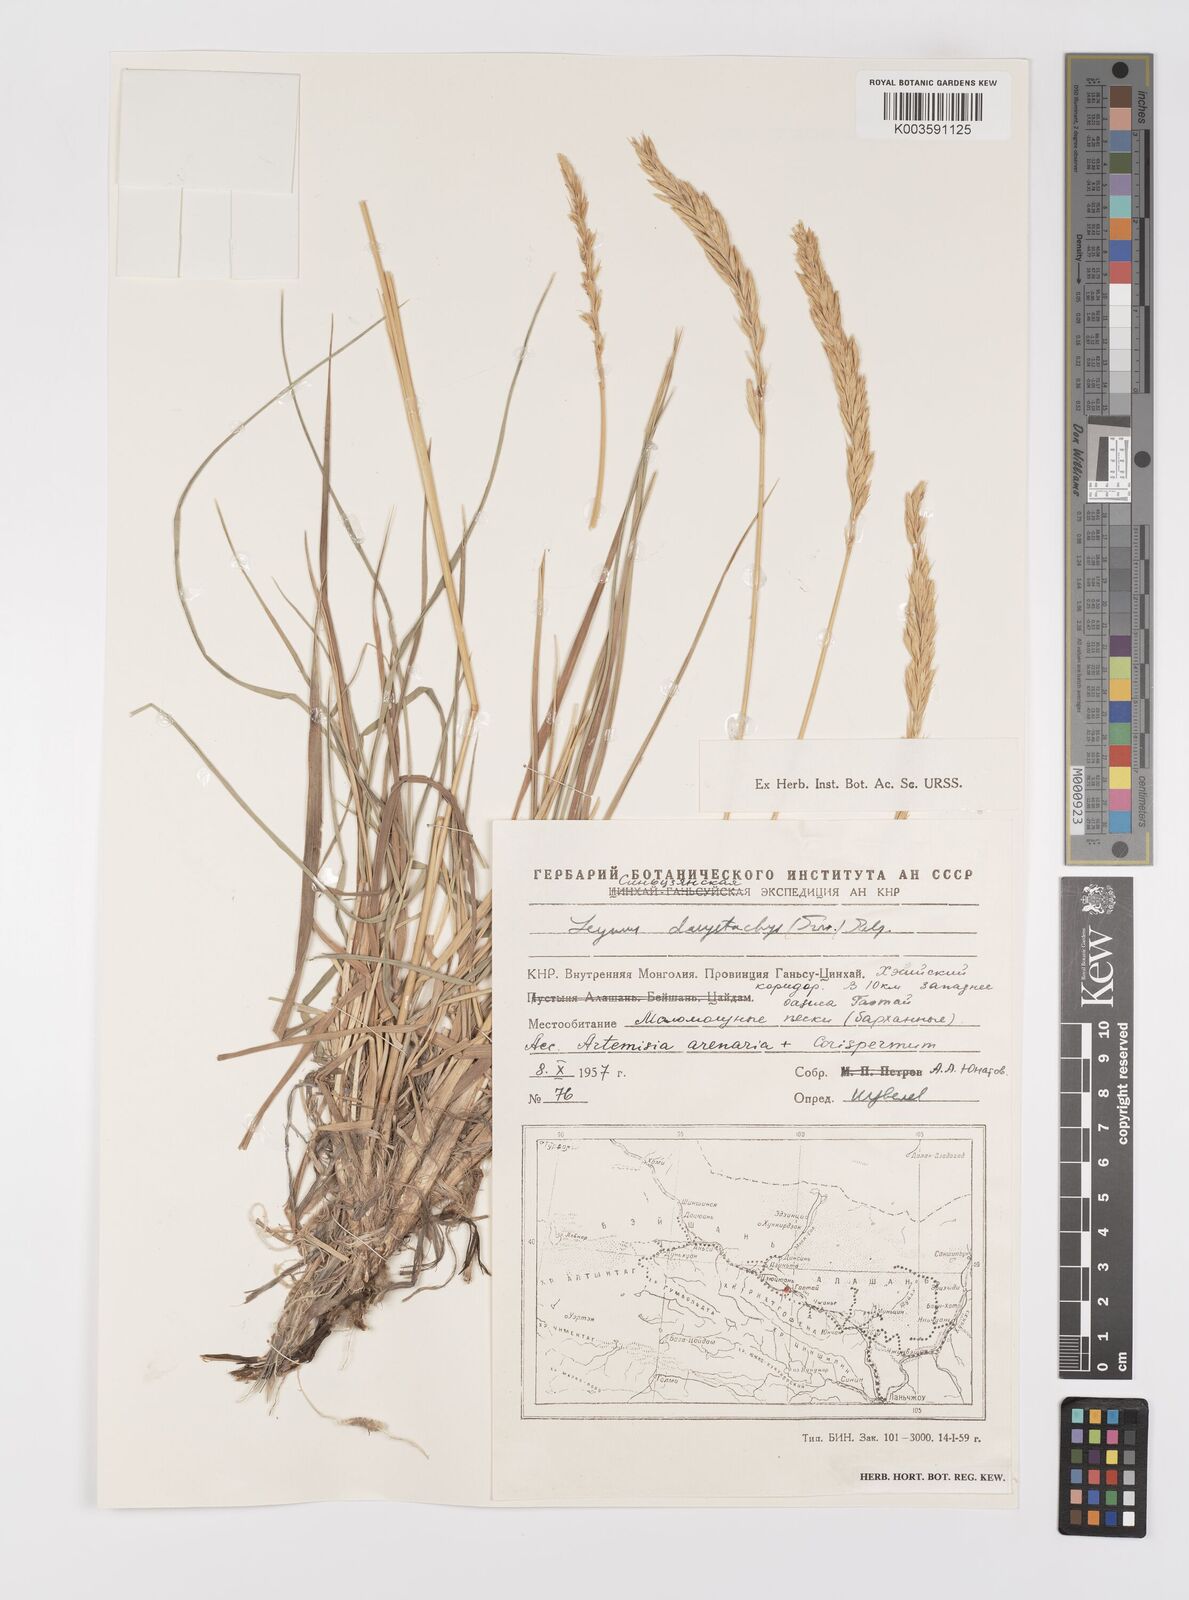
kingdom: Plantae
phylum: Tracheophyta
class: Liliopsida
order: Poales
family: Poaceae
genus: Leymus
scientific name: Leymus secalinus
